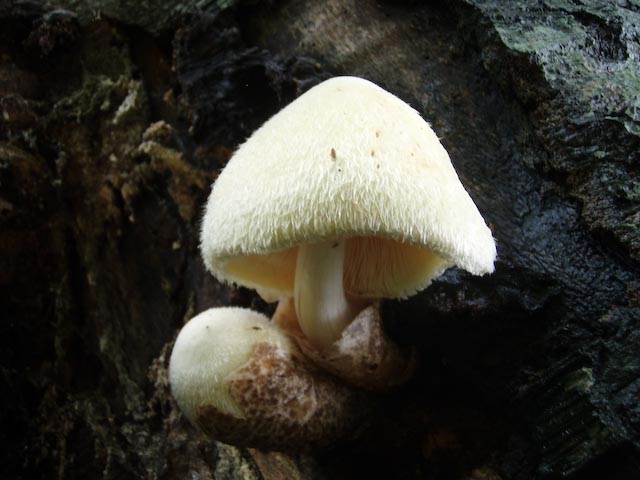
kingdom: Fungi
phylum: Basidiomycota
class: Agaricomycetes
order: Agaricales
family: Pluteaceae
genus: Volvariella
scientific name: Volvariella bombycina
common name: silkehåret posesvamp
